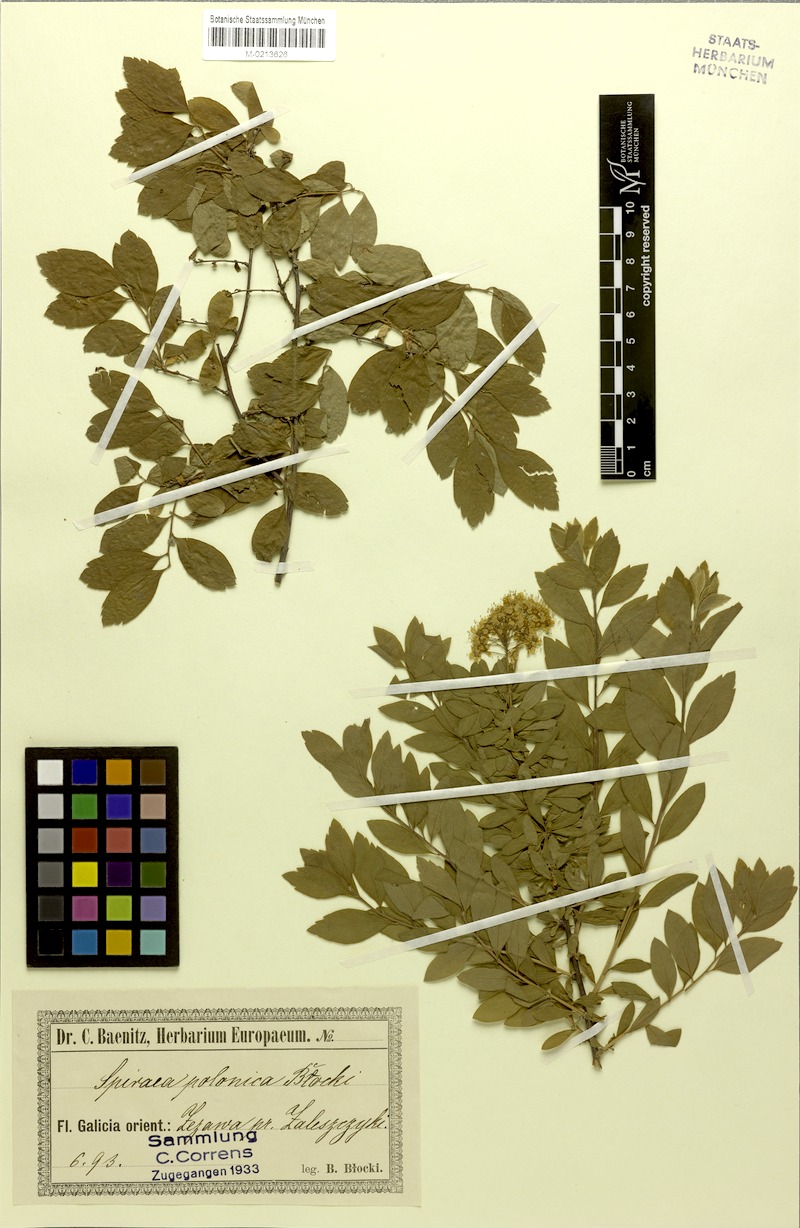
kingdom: Plantae
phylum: Tracheophyta
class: Magnoliopsida
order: Rosales
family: Rosaceae
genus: Spiraea
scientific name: Spiraea media
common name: Russian spiraea
